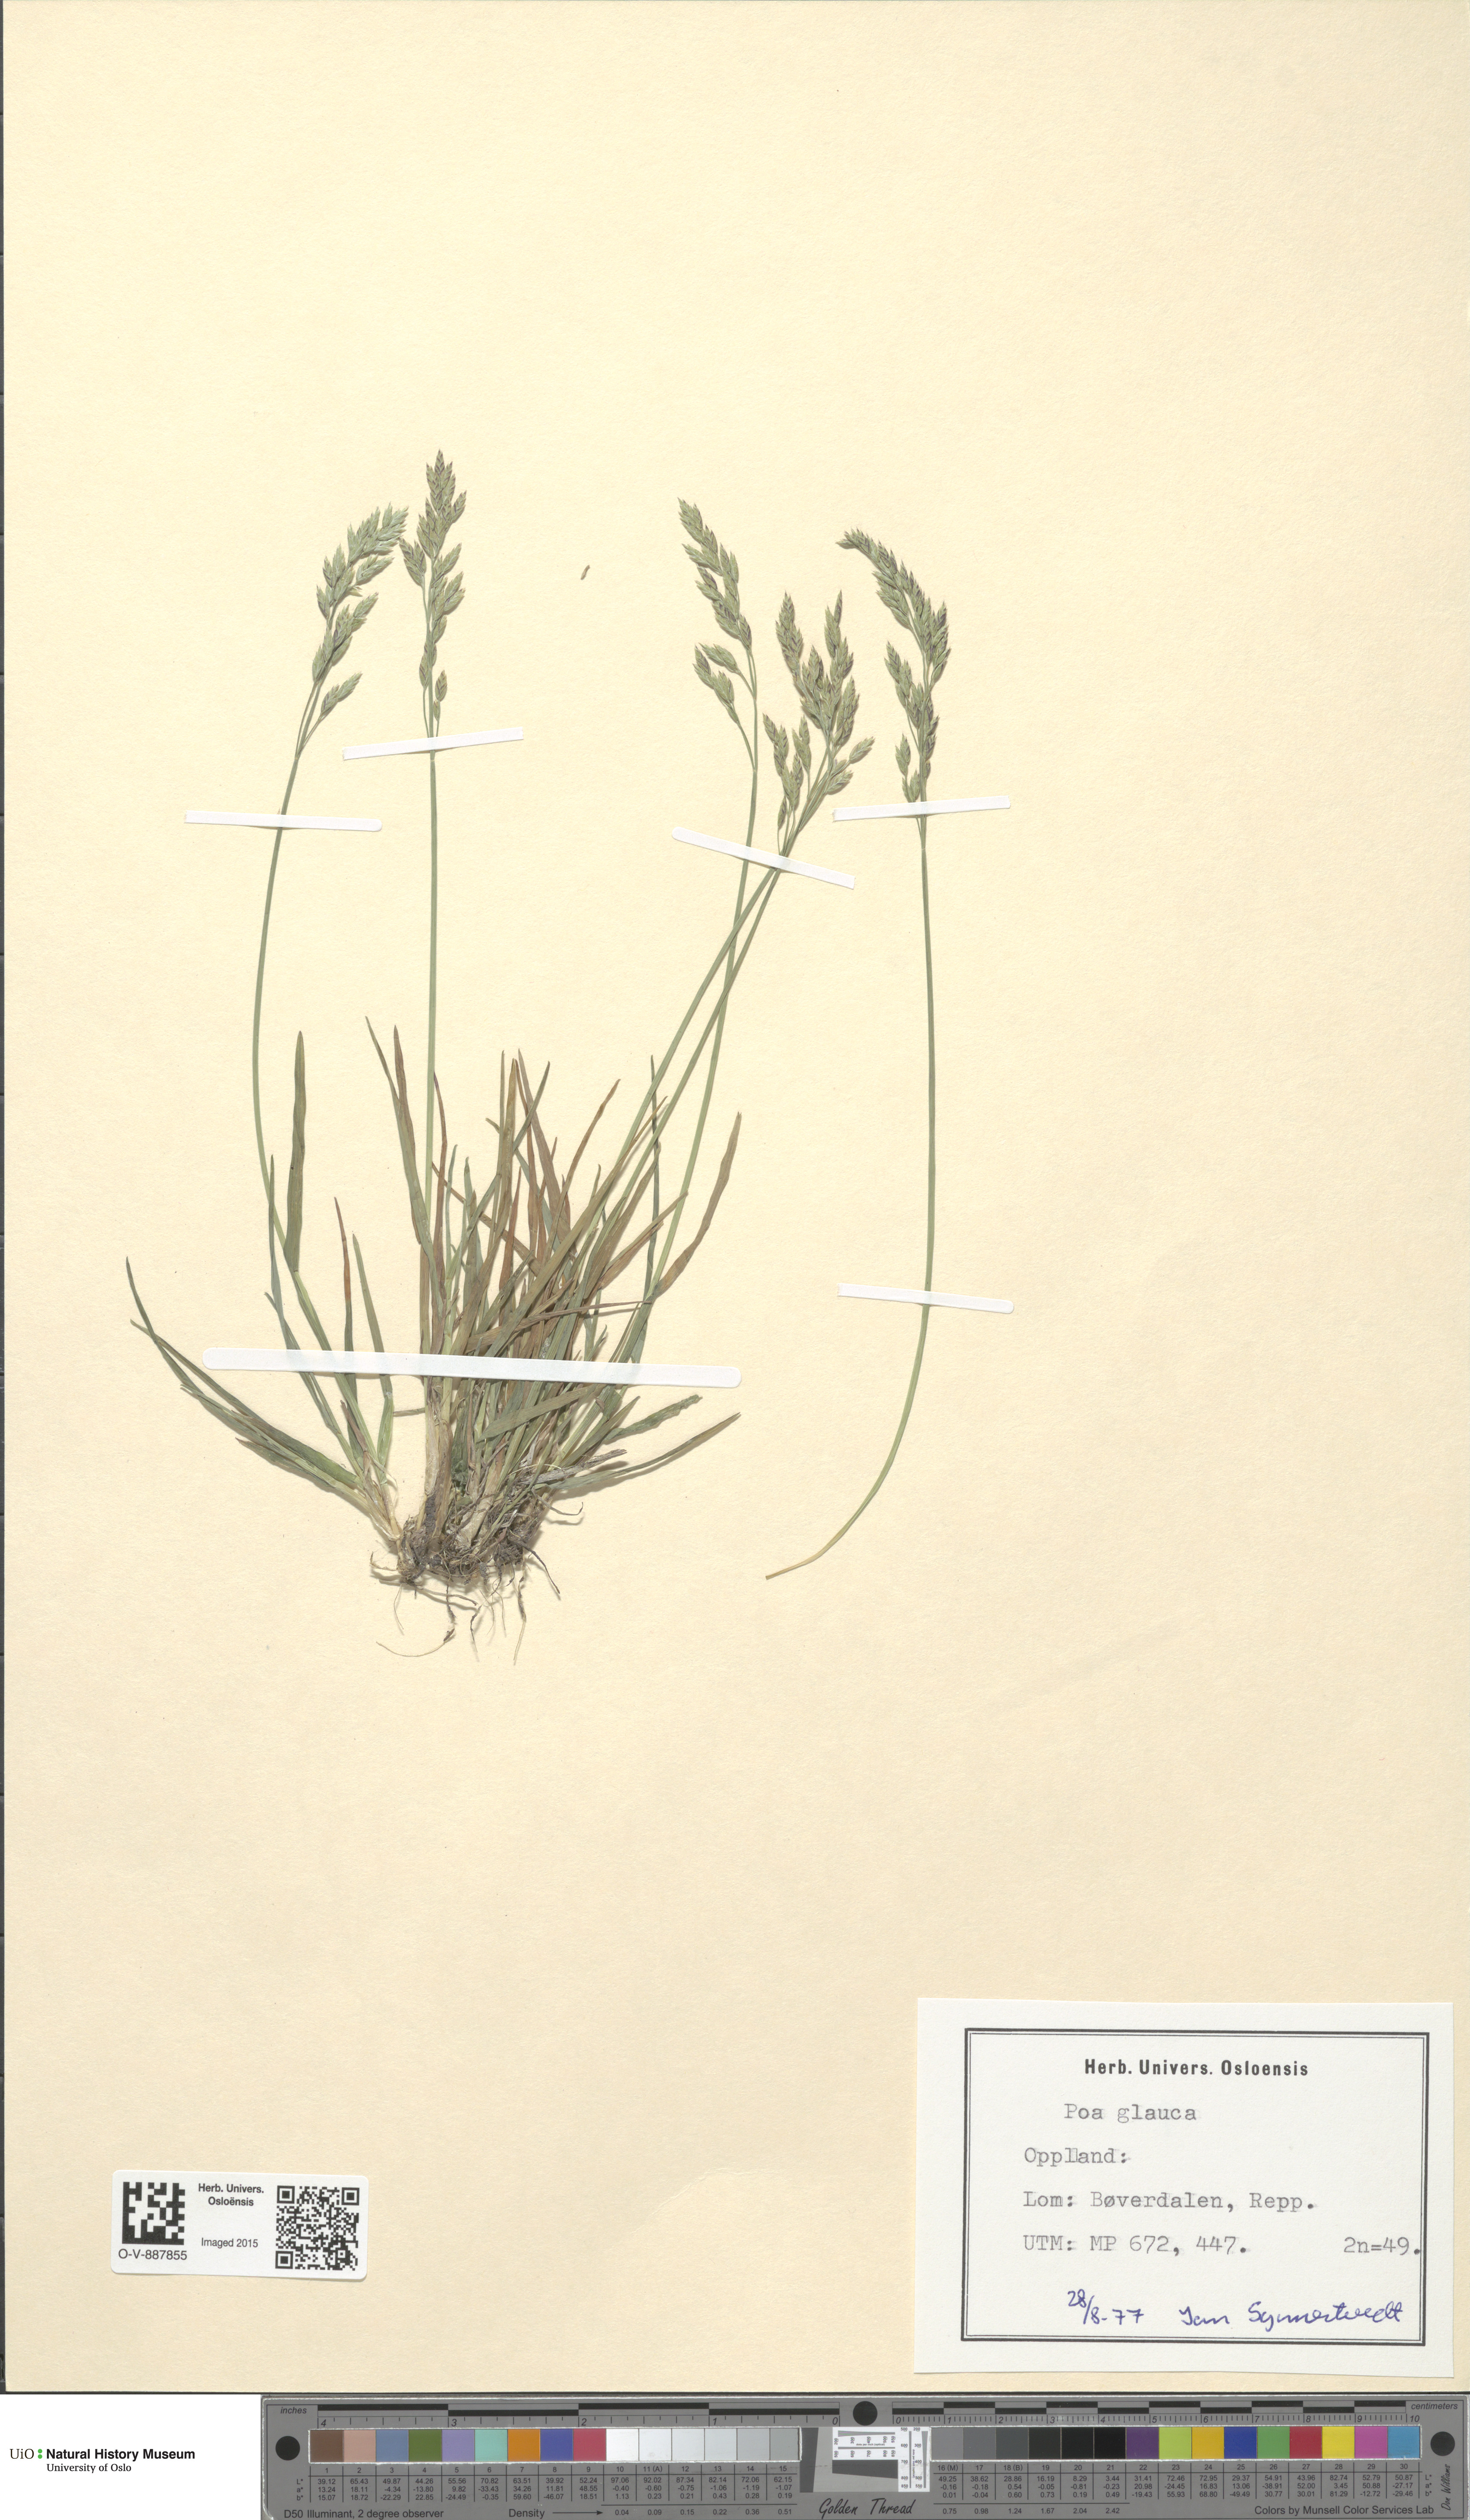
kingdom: Plantae
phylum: Tracheophyta
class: Liliopsida
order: Poales
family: Poaceae
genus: Poa
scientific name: Poa glauca
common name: Glaucous bluegrass
